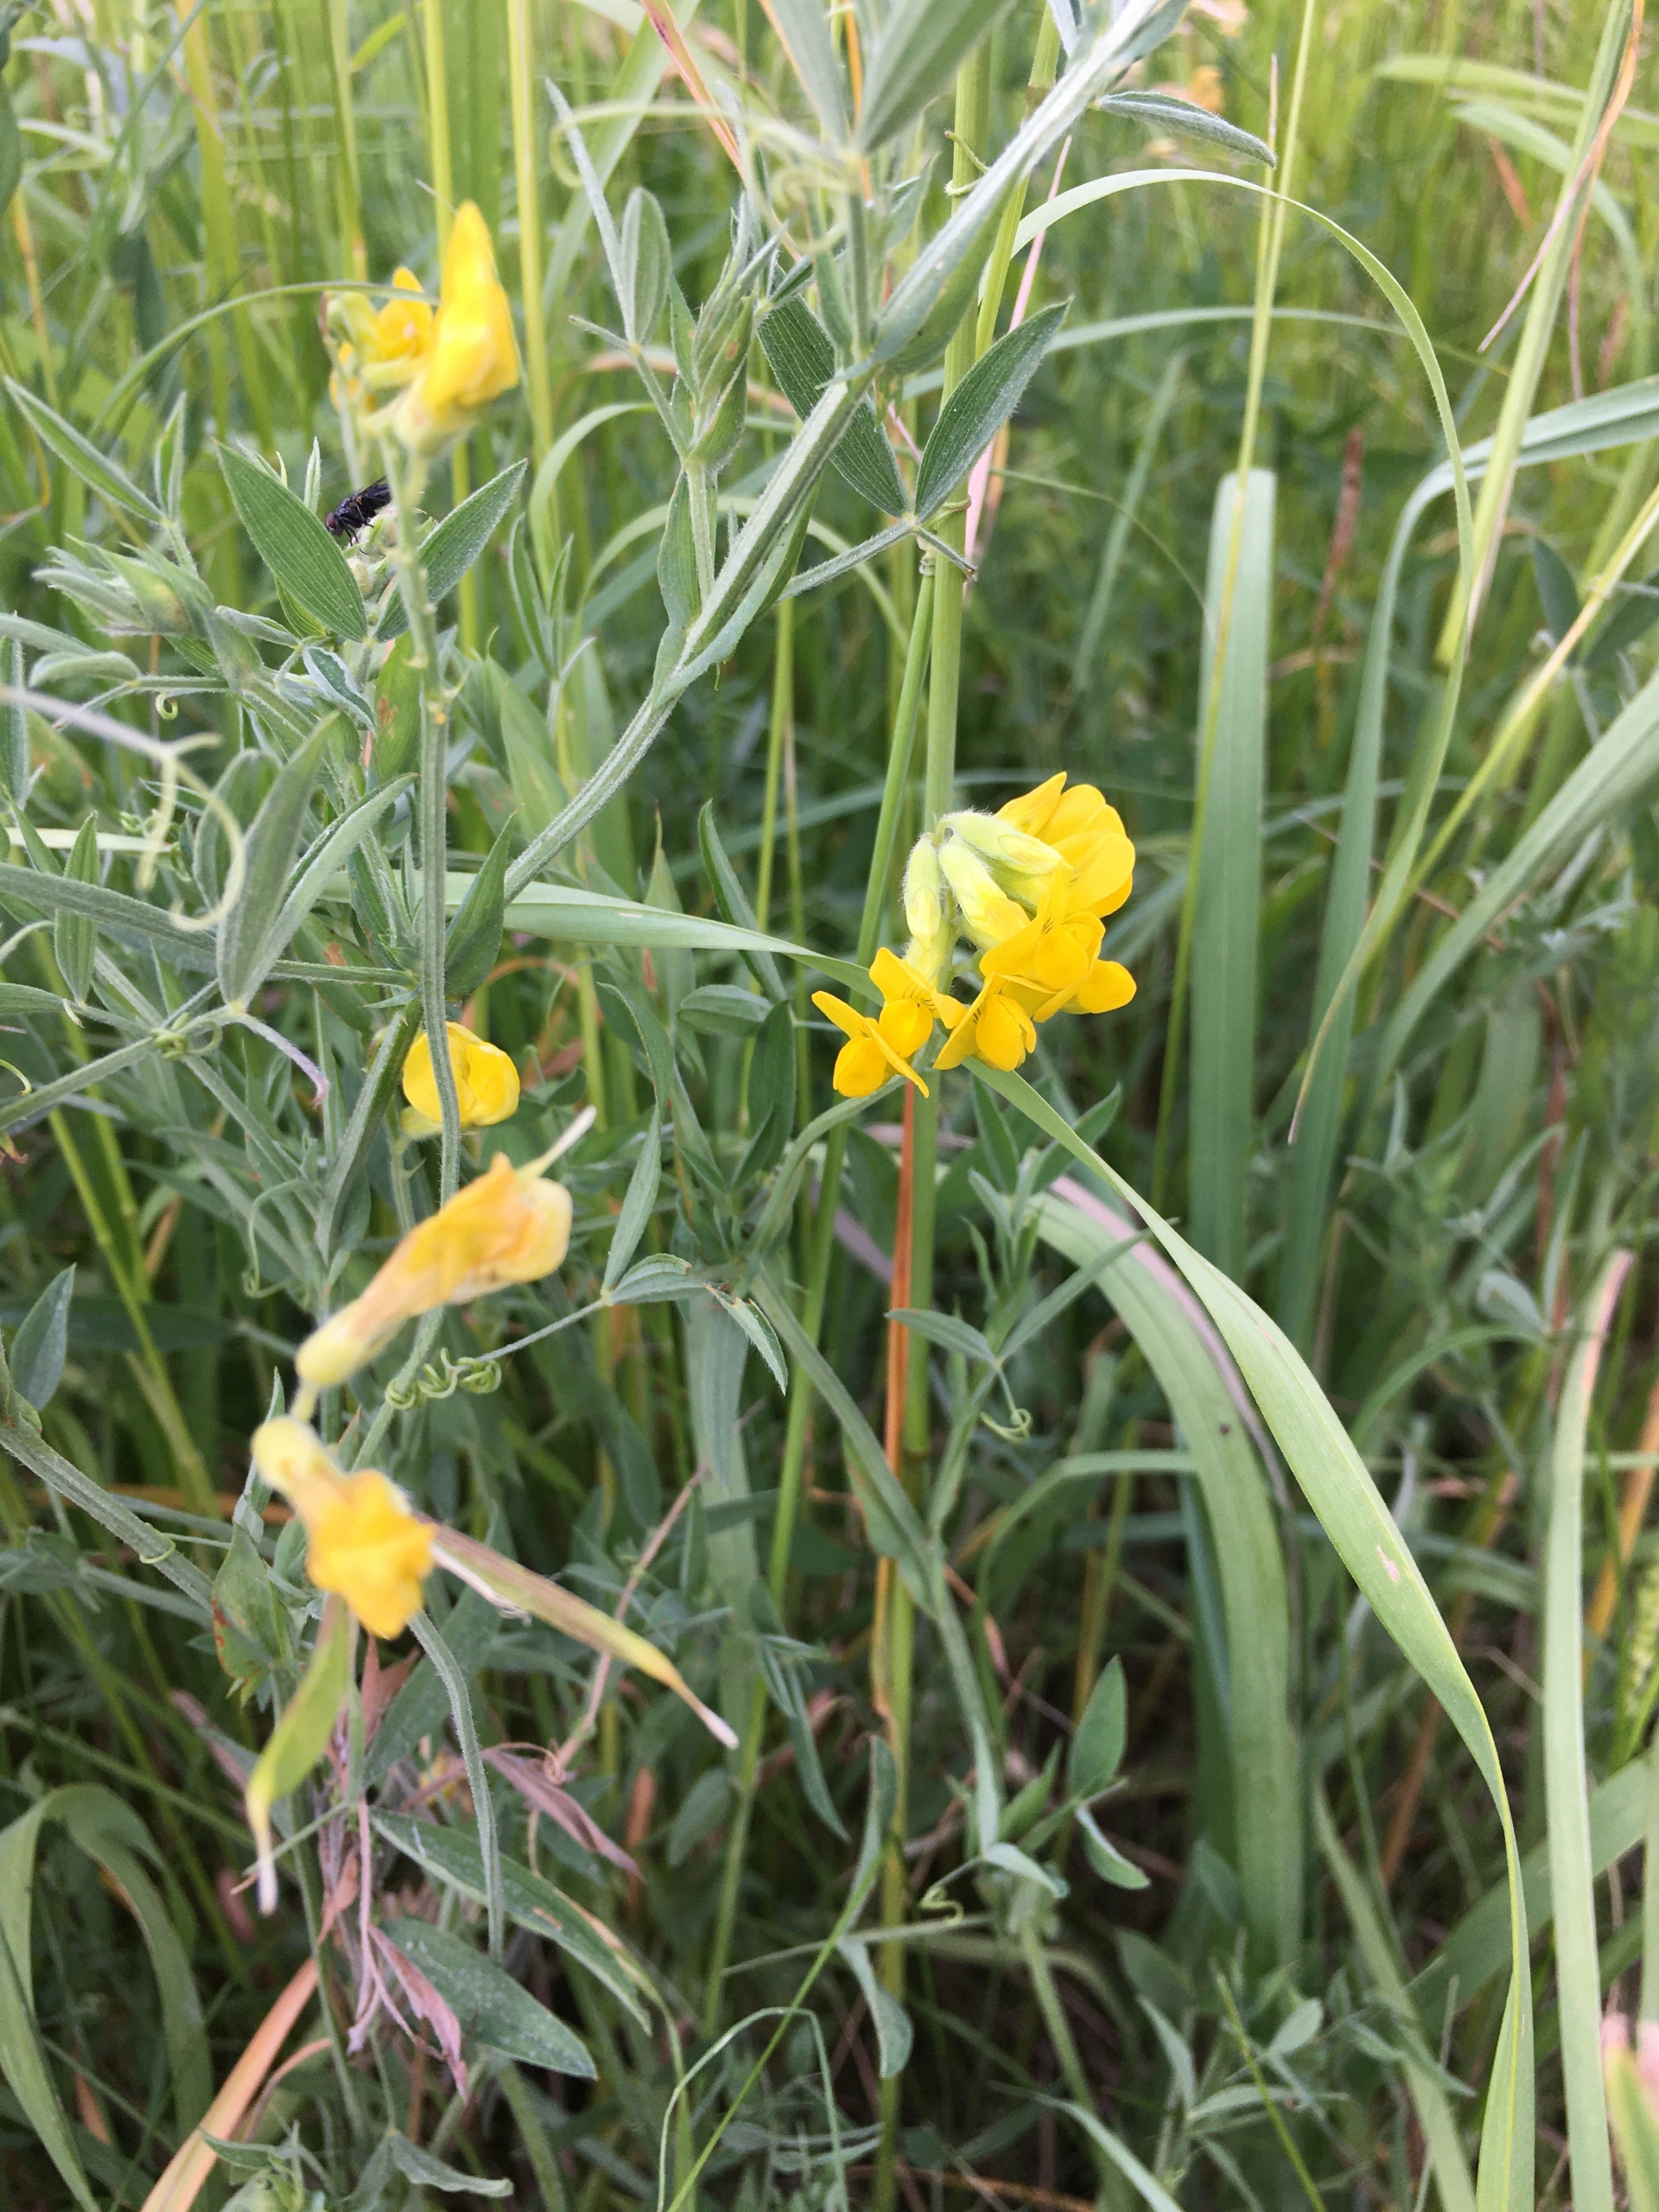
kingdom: Plantae
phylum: Tracheophyta
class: Magnoliopsida
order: Fabales
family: Fabaceae
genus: Lathyrus
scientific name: Lathyrus pratensis
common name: Gul fladbælg
